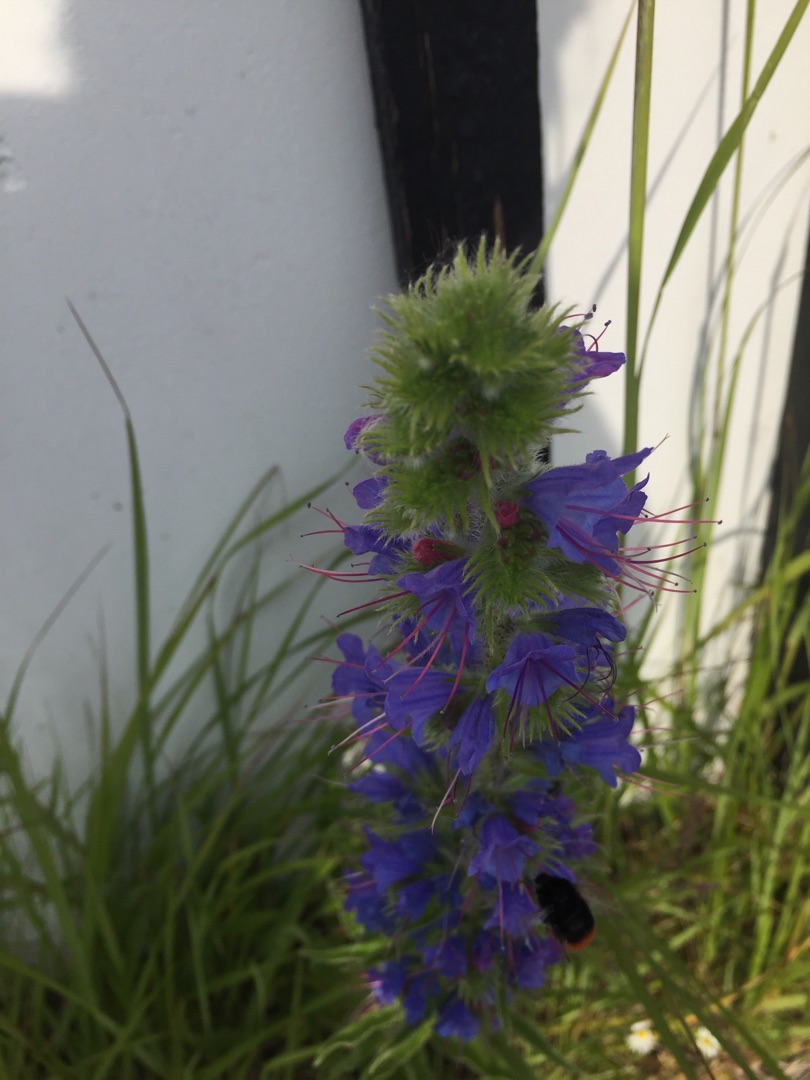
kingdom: Plantae
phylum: Tracheophyta
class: Magnoliopsida
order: Boraginales
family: Boraginaceae
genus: Echium
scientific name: Echium vulgare
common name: Slangehoved
